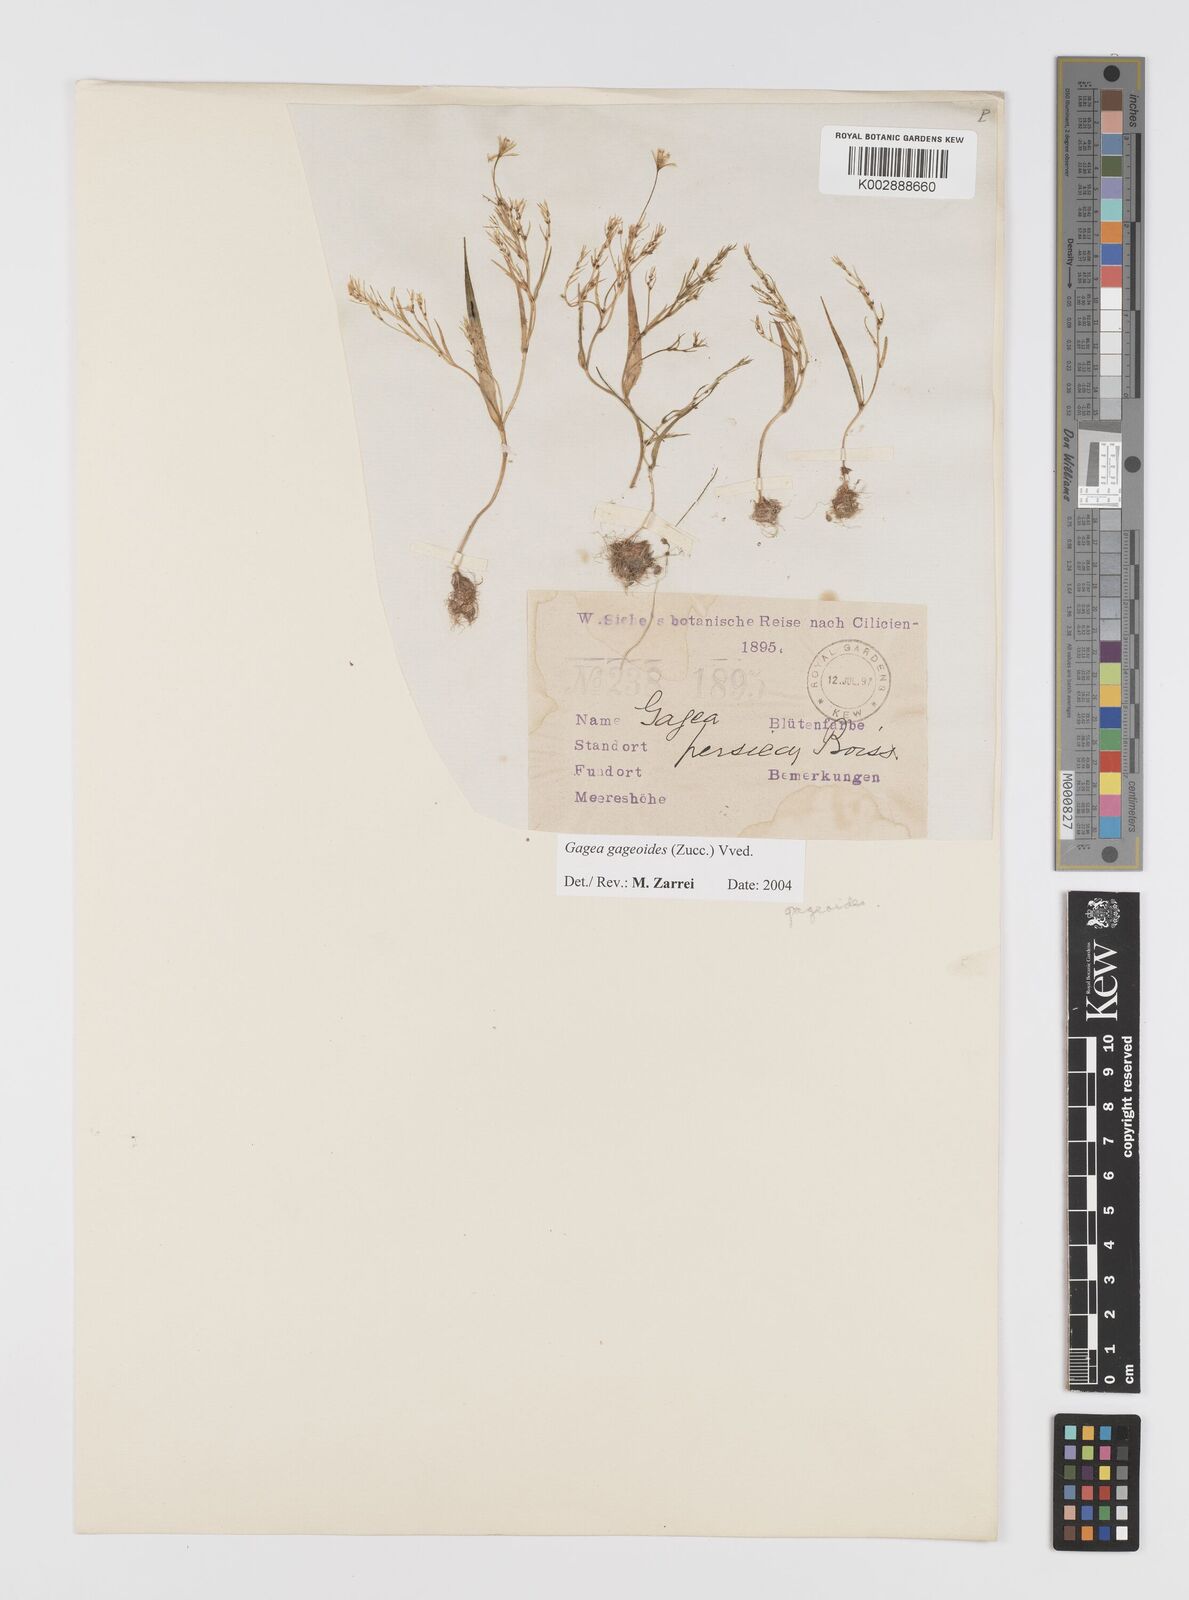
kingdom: Plantae
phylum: Tracheophyta
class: Liliopsida
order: Liliales
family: Liliaceae
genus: Gagea
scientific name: Gagea gageoides
